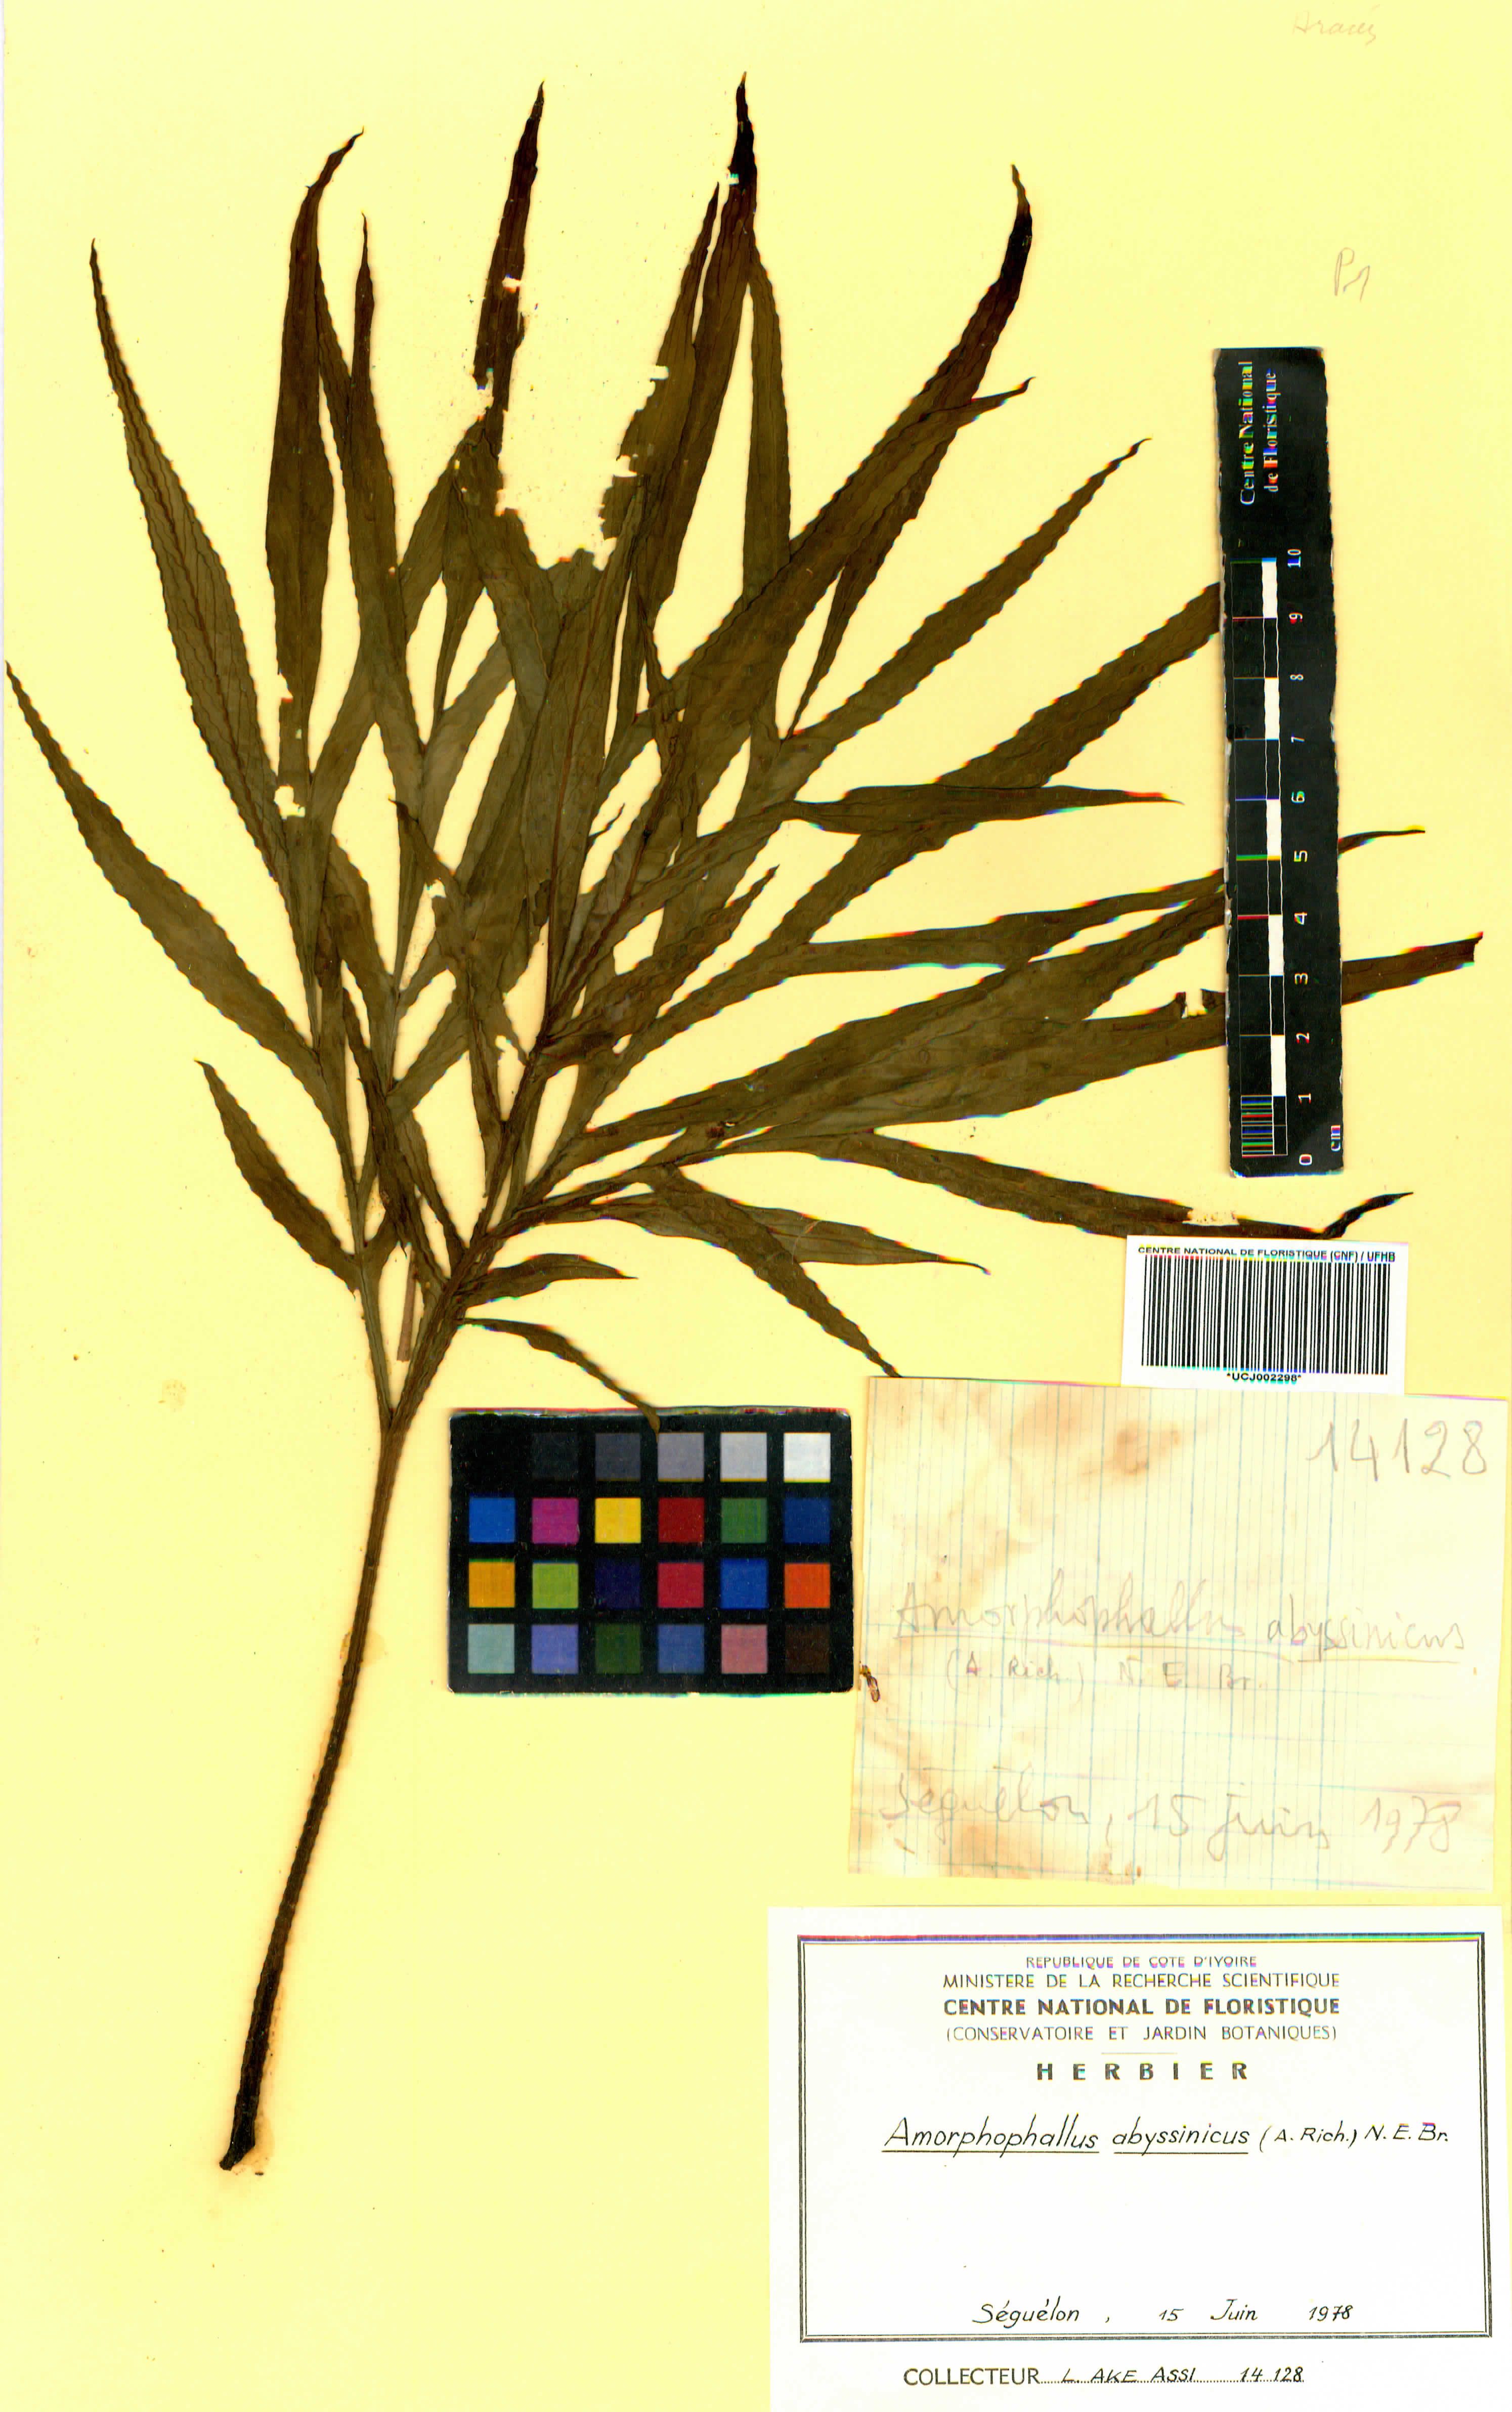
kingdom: Plantae
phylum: Tracheophyta
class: Liliopsida
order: Alismatales
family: Araceae
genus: Amorphophallus
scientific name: Amorphophallus abyssinicus
